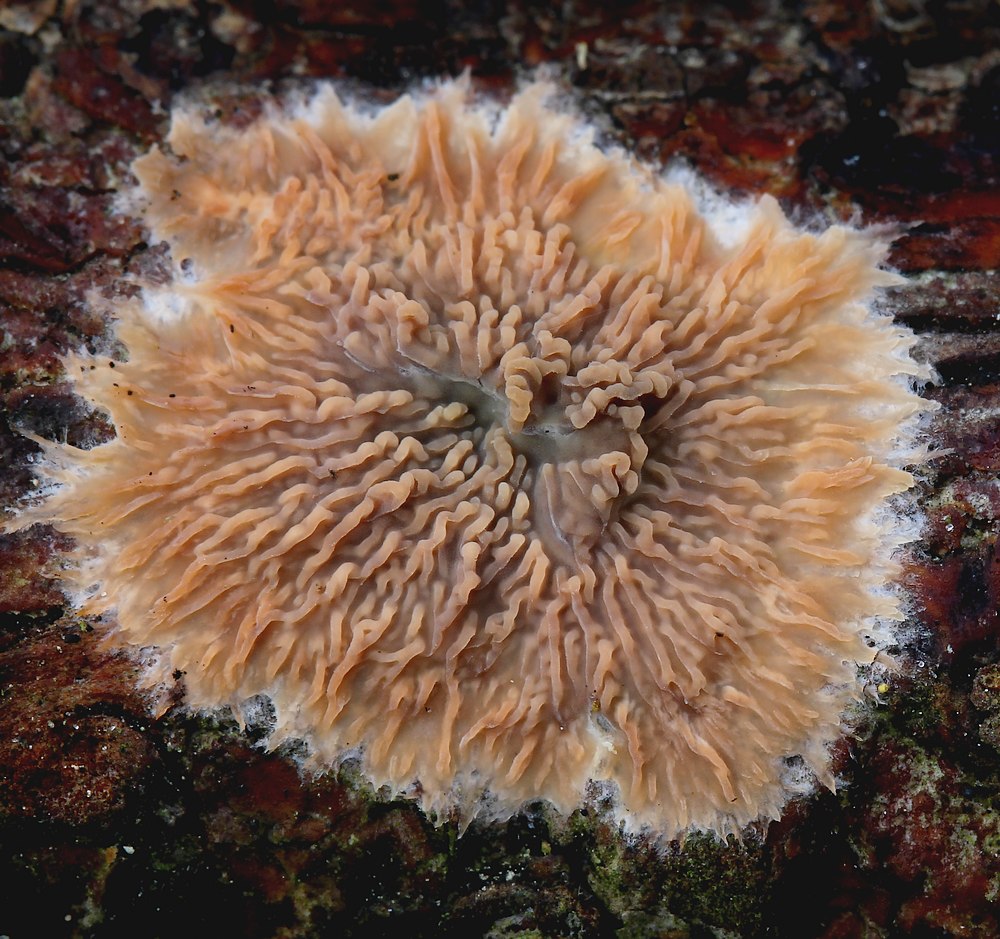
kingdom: Fungi
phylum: Basidiomycota
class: Agaricomycetes
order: Polyporales
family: Meruliaceae
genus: Phlebia
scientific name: Phlebia radiata
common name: stråle-åresvamp
